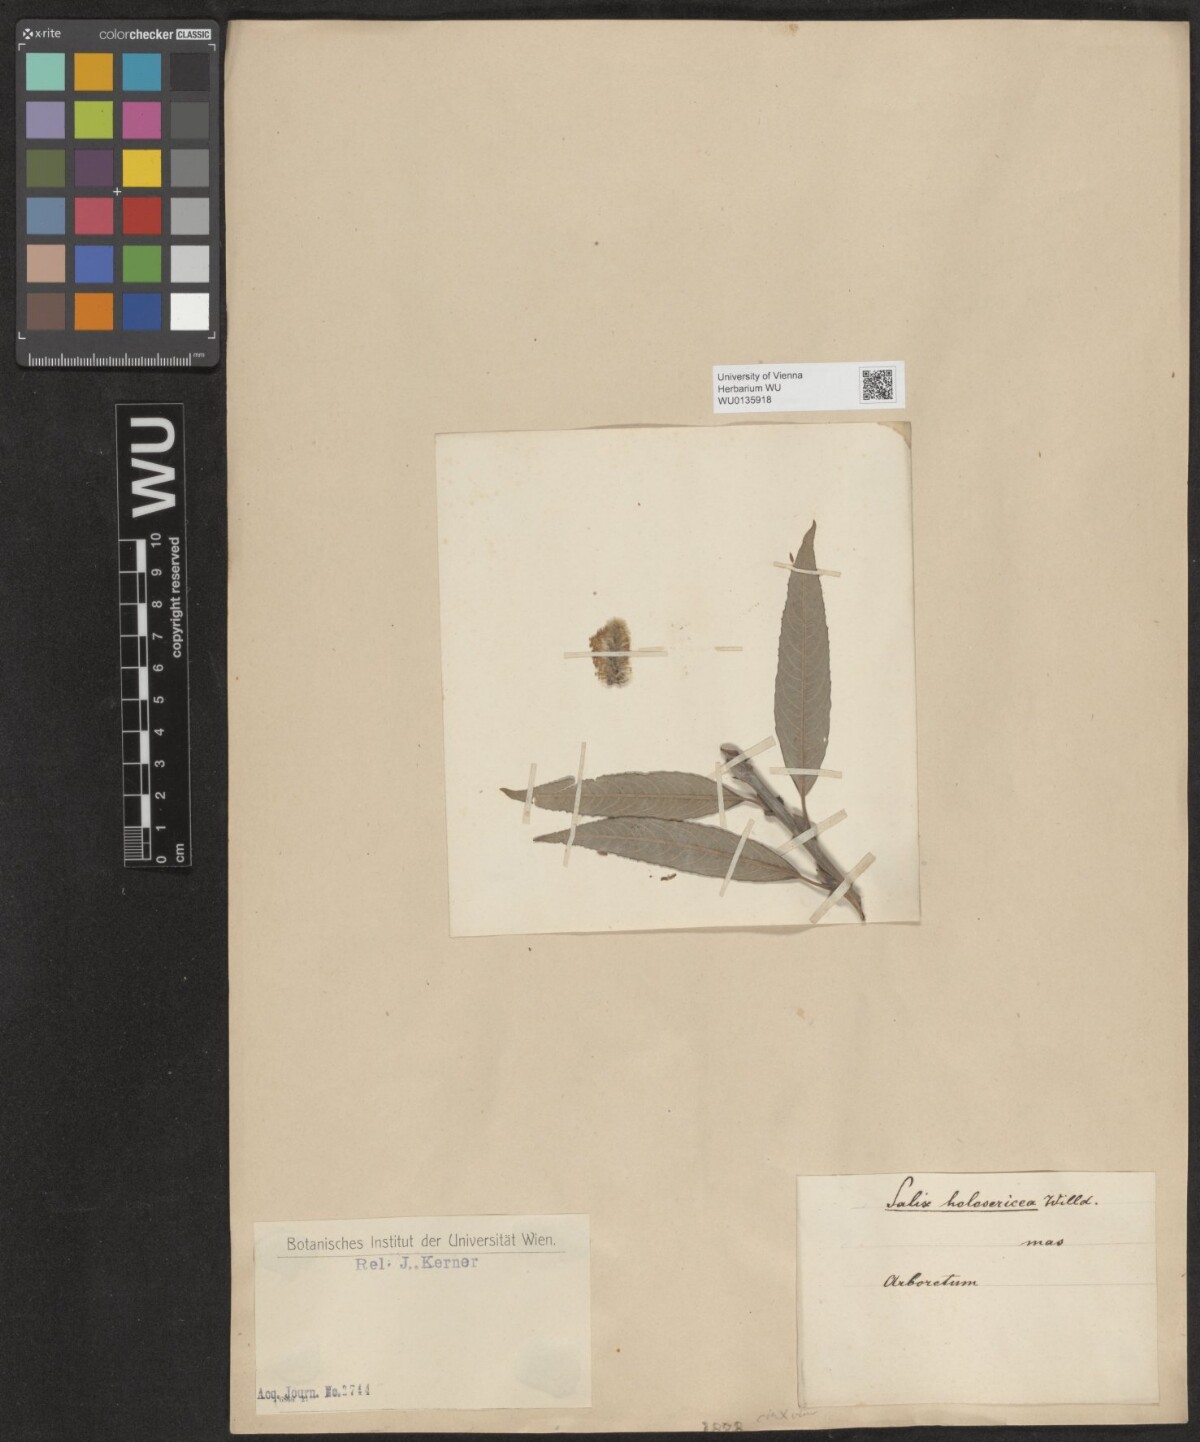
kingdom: Plantae
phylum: Tracheophyta
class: Magnoliopsida
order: Malpighiales
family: Salicaceae
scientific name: Salicaceae
